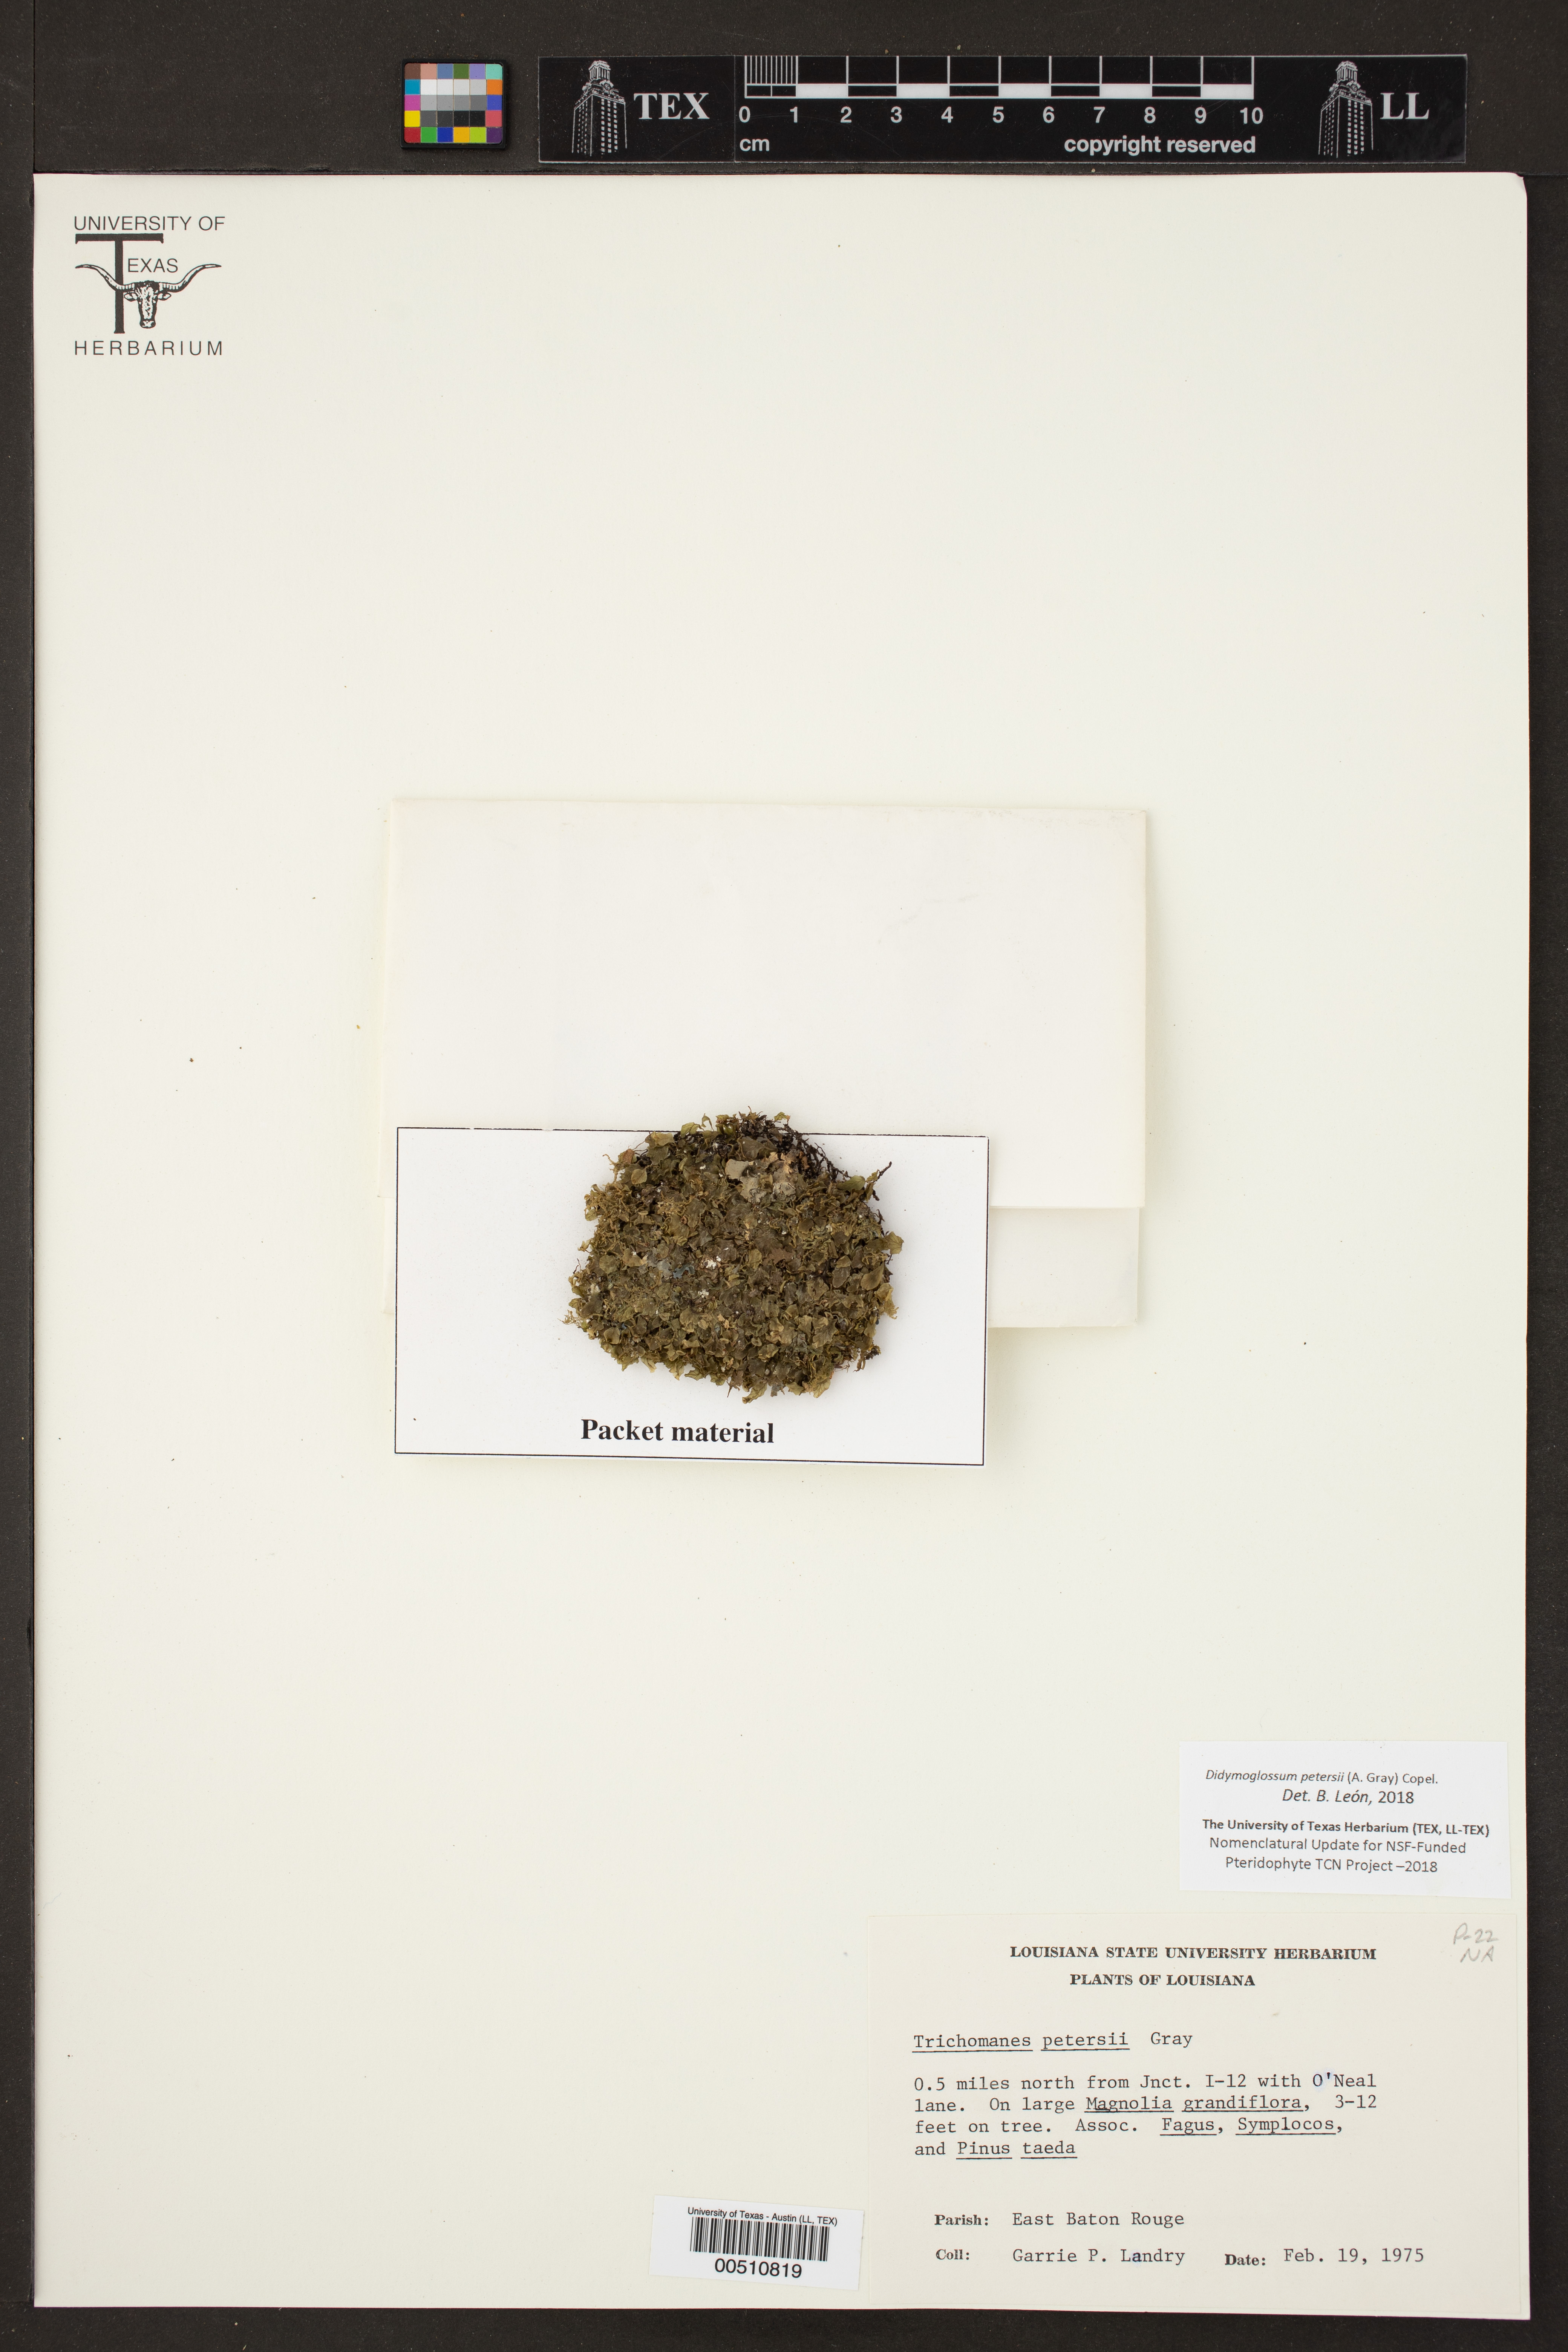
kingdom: Plantae
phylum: Tracheophyta
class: Polypodiopsida
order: Hymenophyllales
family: Hymenophyllaceae
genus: Didymoglossum
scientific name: Didymoglossum petersii
